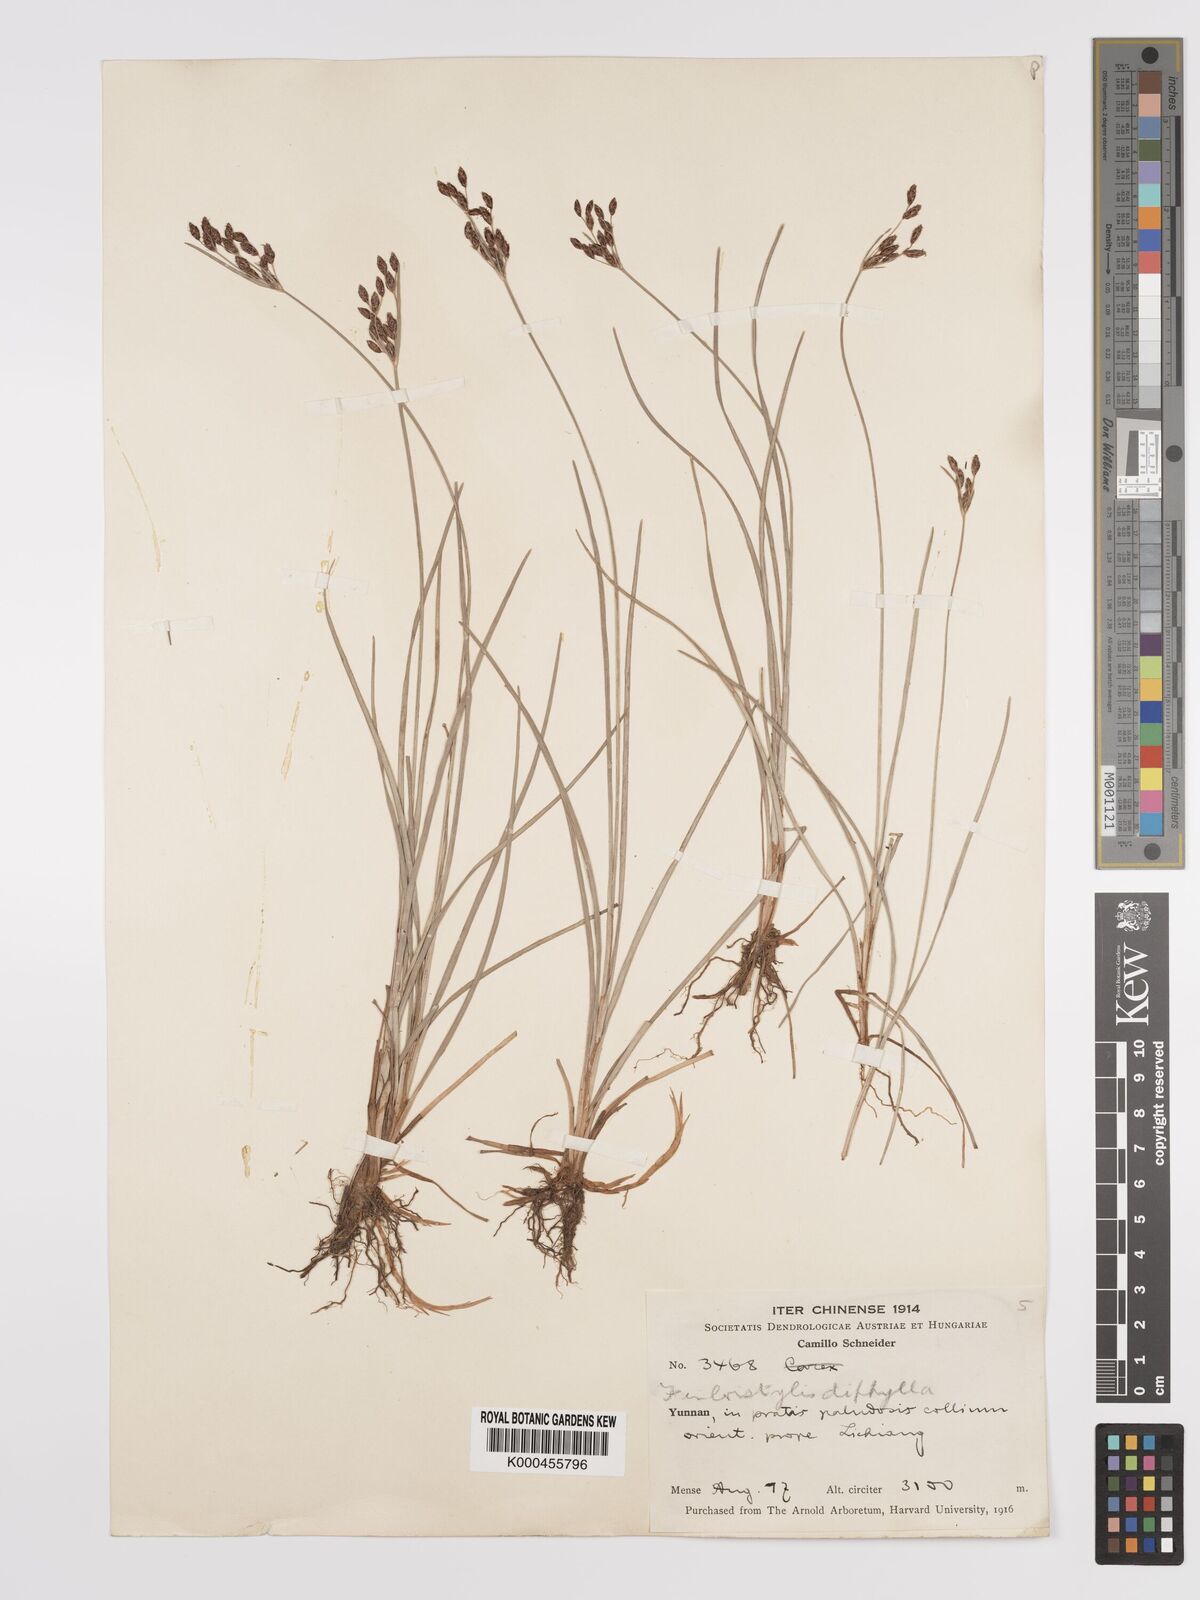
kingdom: Plantae
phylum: Tracheophyta
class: Liliopsida
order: Poales
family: Cyperaceae
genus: Fimbristylis
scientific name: Fimbristylis dichotoma
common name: Forked fimbry
